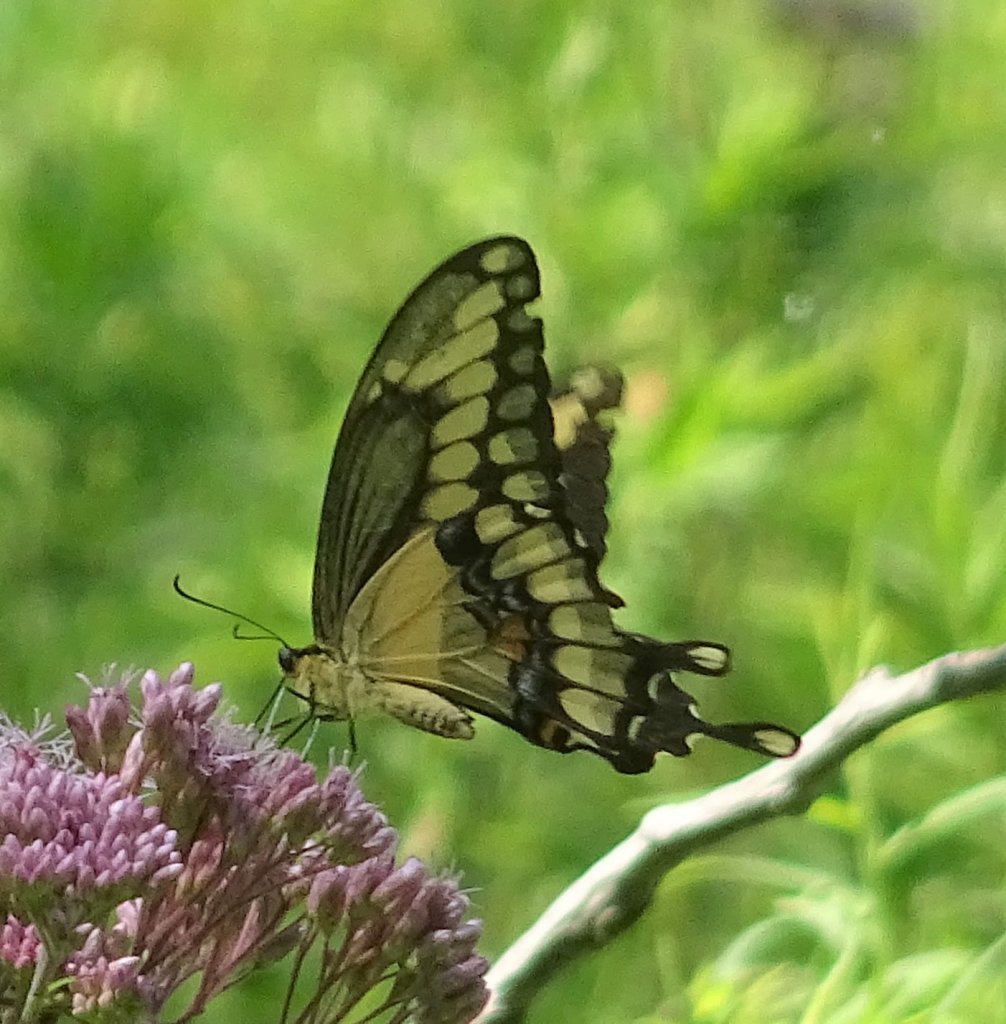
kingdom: Animalia
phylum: Arthropoda
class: Insecta
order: Lepidoptera
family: Papilionidae
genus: Papilio
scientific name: Papilio cresphontes
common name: Eastern Giant Swallowtail
